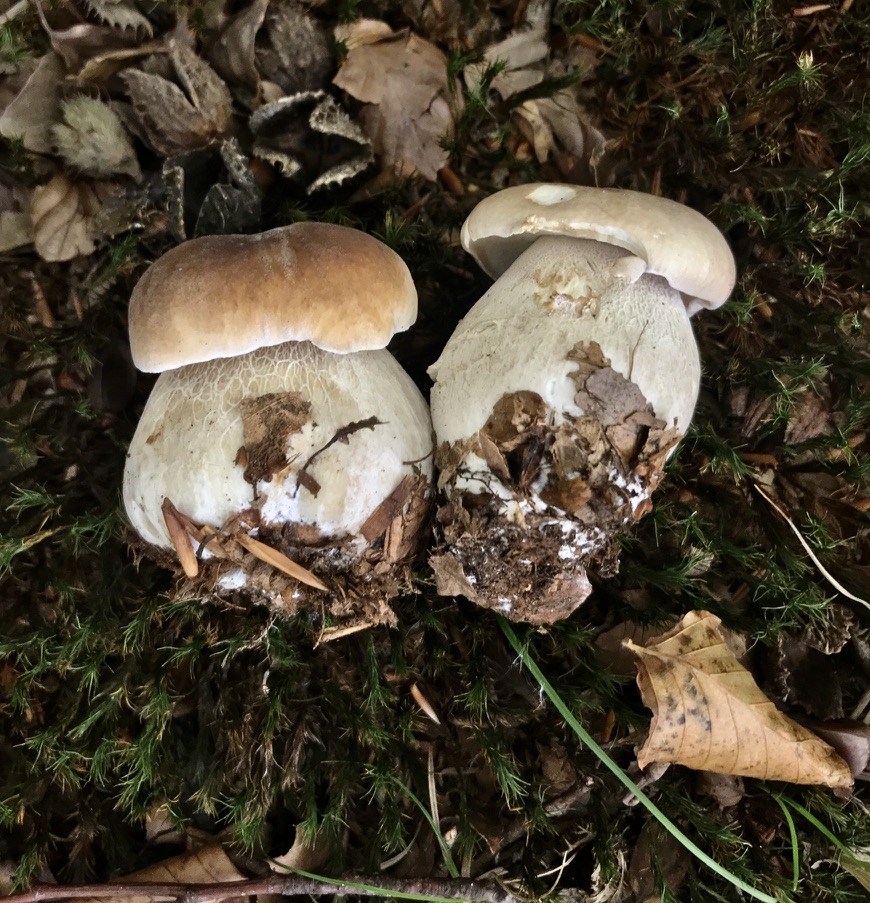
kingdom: Fungi
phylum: Basidiomycota
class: Agaricomycetes
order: Boletales
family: Boletaceae
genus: Boletus
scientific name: Boletus edulis
